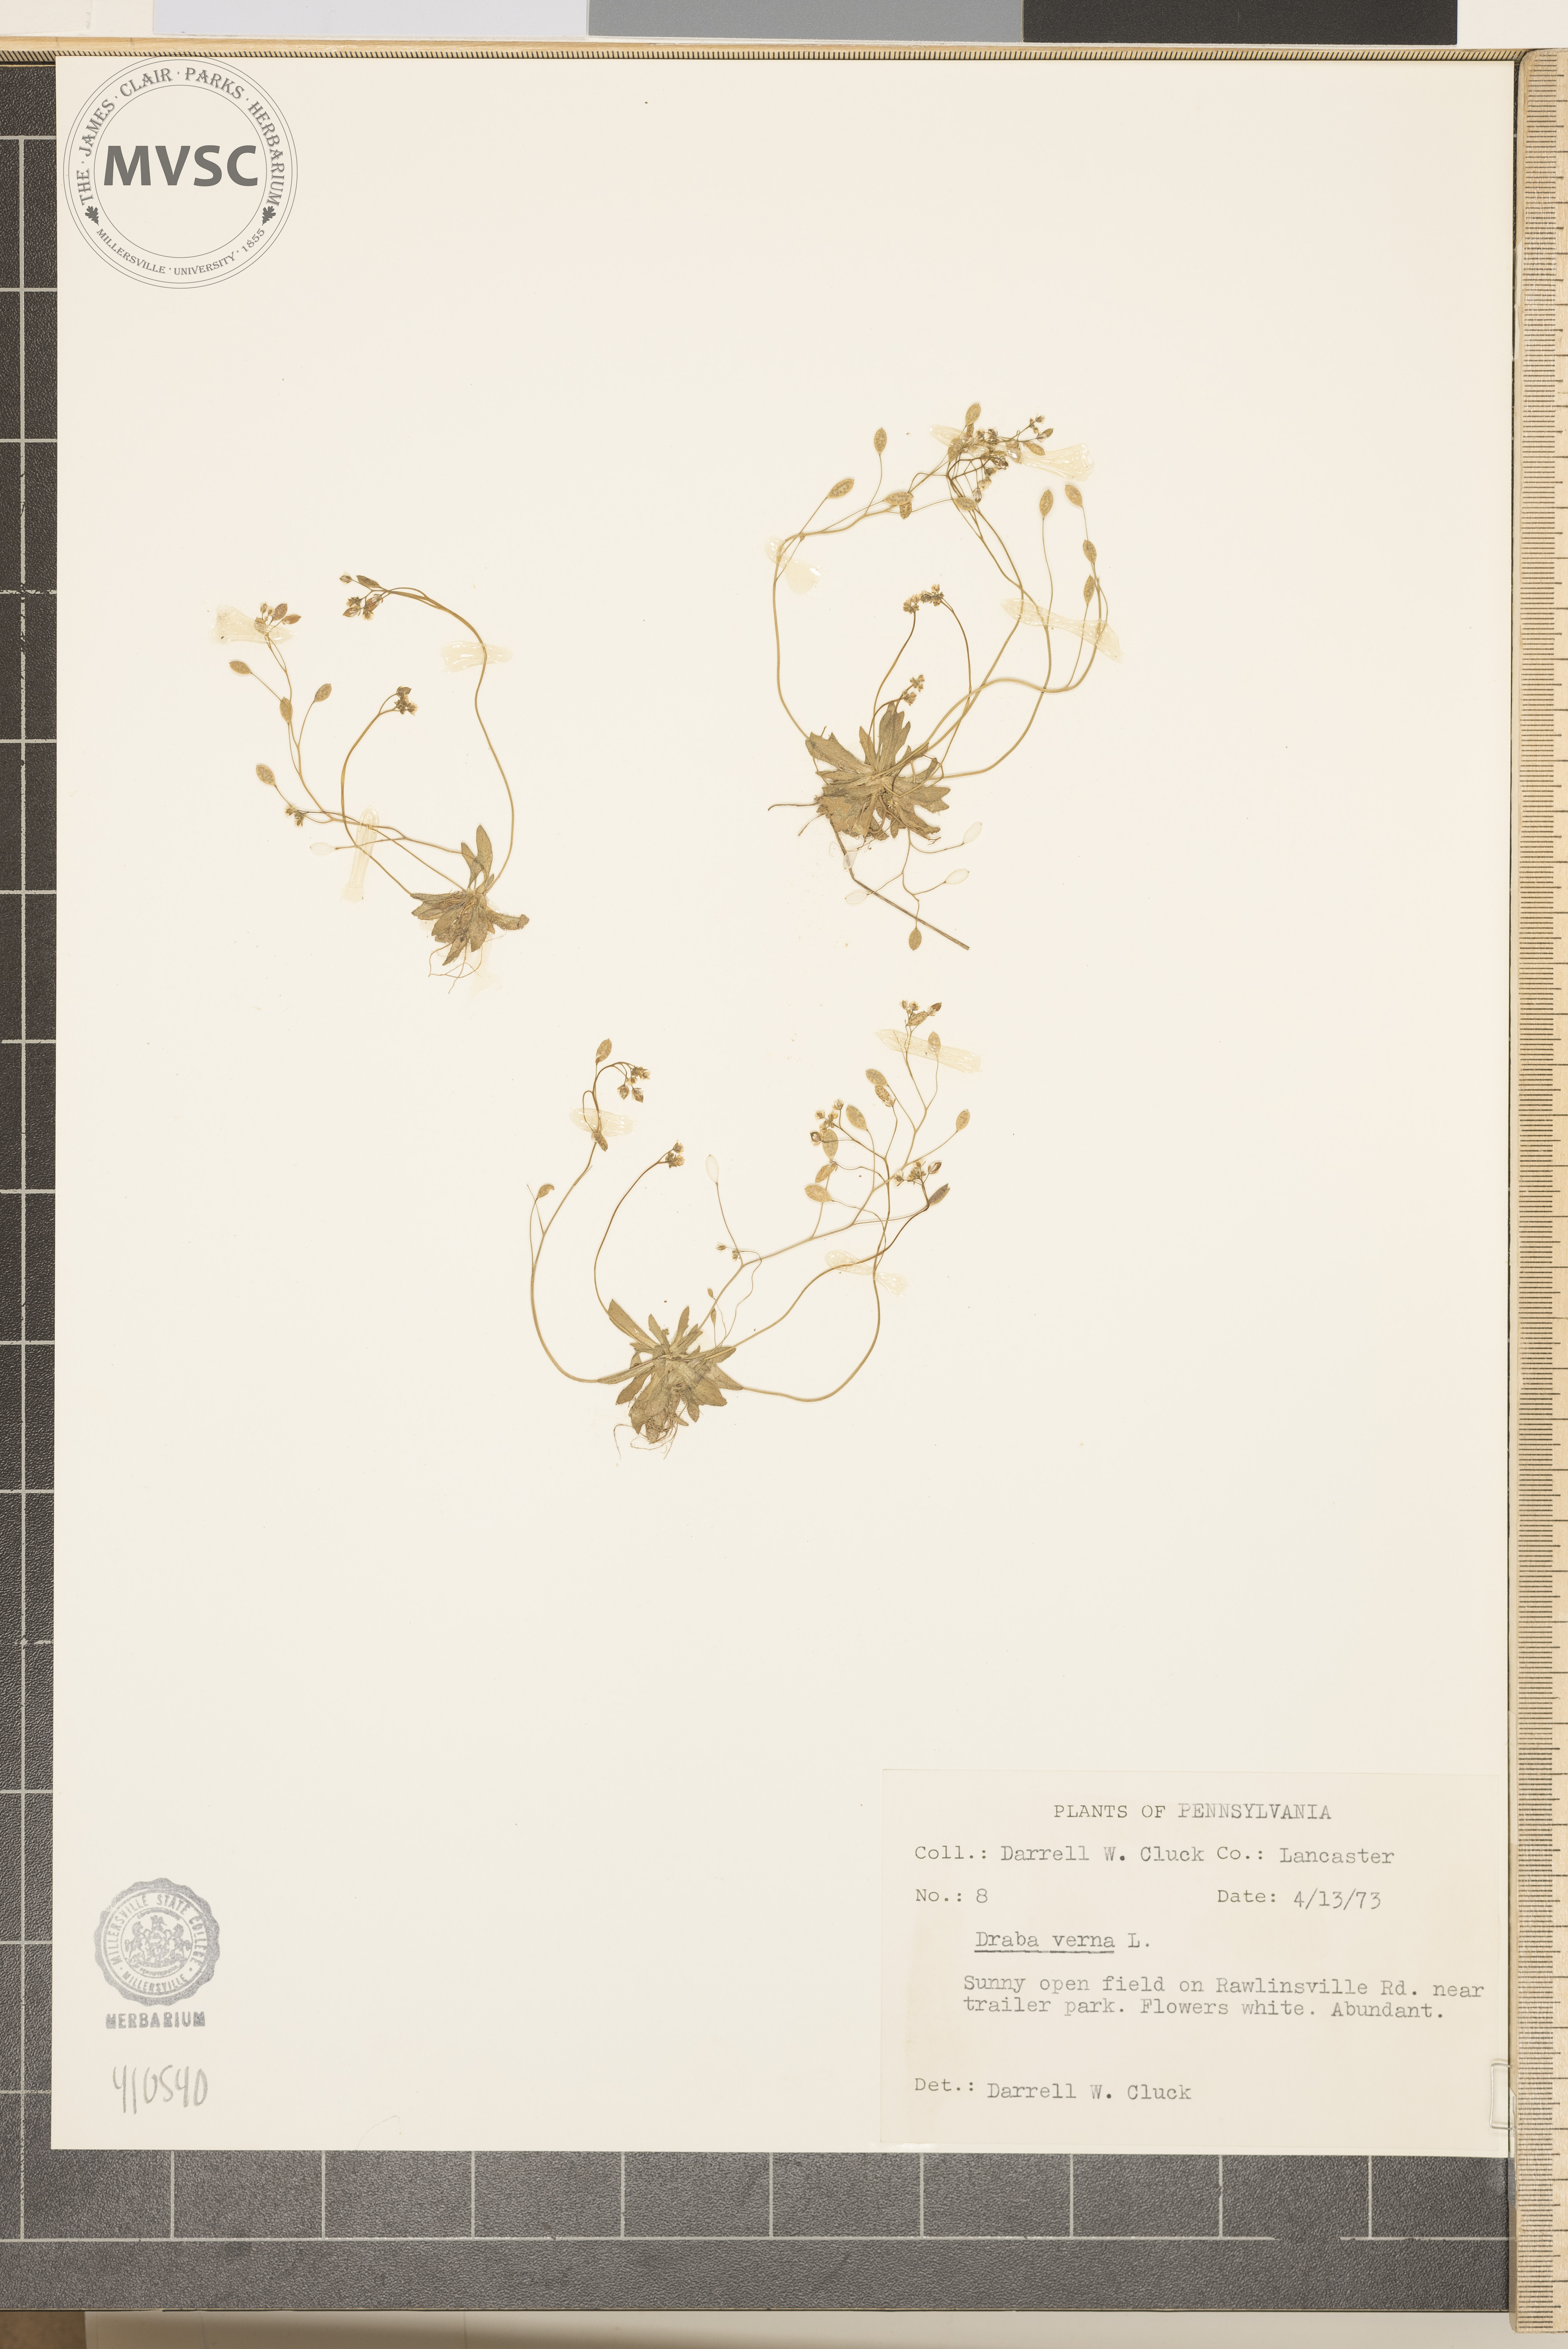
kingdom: Plantae
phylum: Tracheophyta
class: Magnoliopsida
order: Brassicales
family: Brassicaceae
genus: Draba
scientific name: Draba verna
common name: Spring draba
